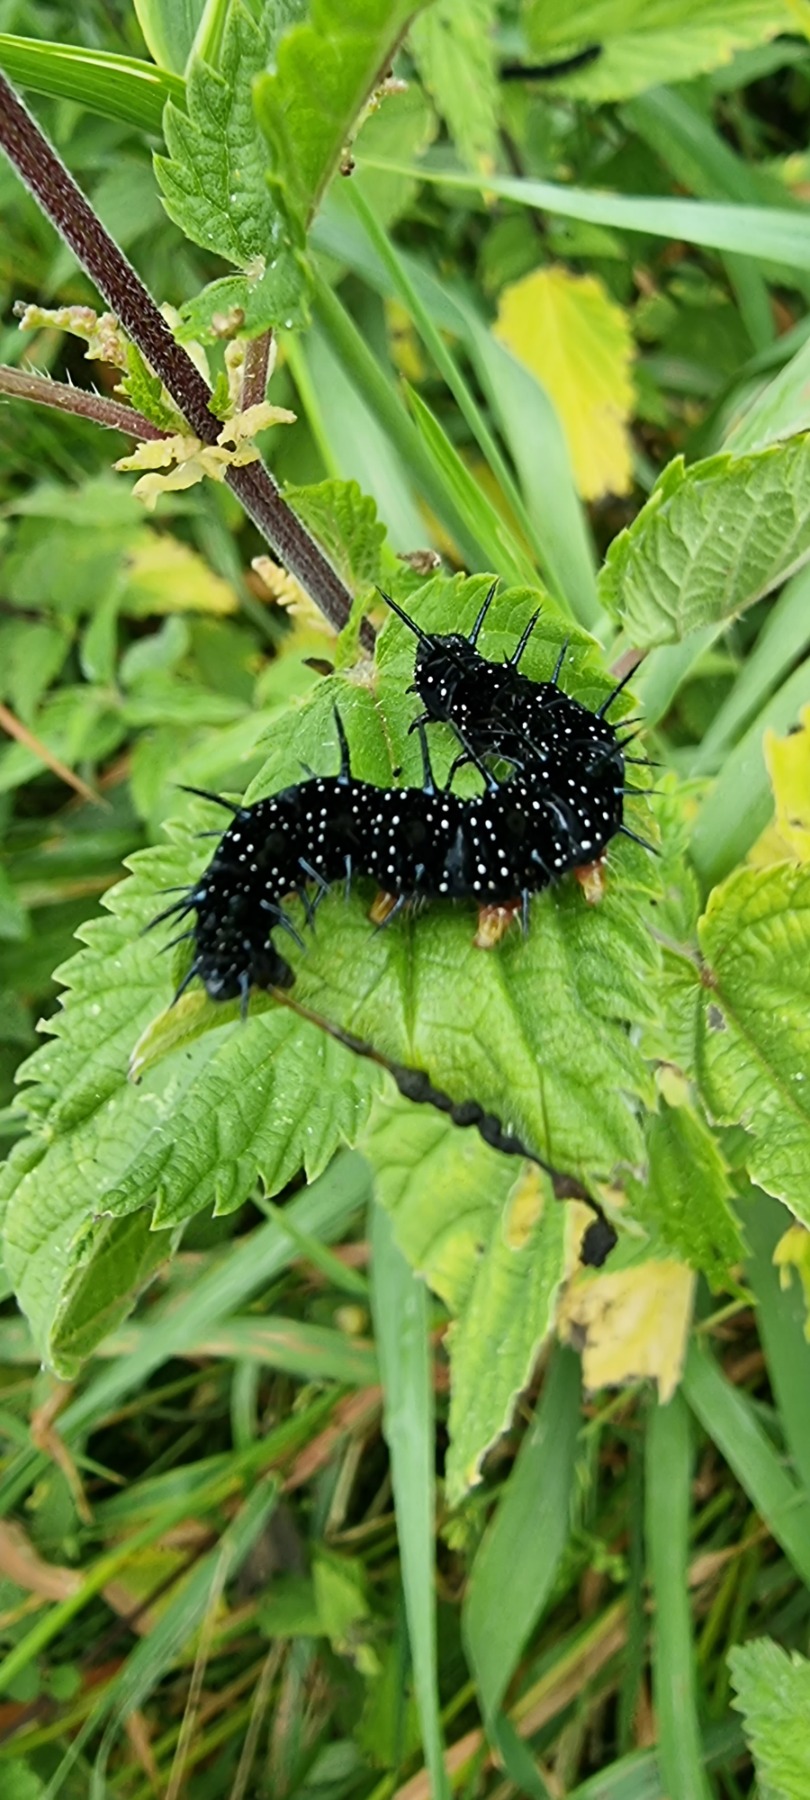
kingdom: Animalia
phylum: Arthropoda
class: Insecta
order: Lepidoptera
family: Nymphalidae
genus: Aglais
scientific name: Aglais io
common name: Dagpåfugleøje
